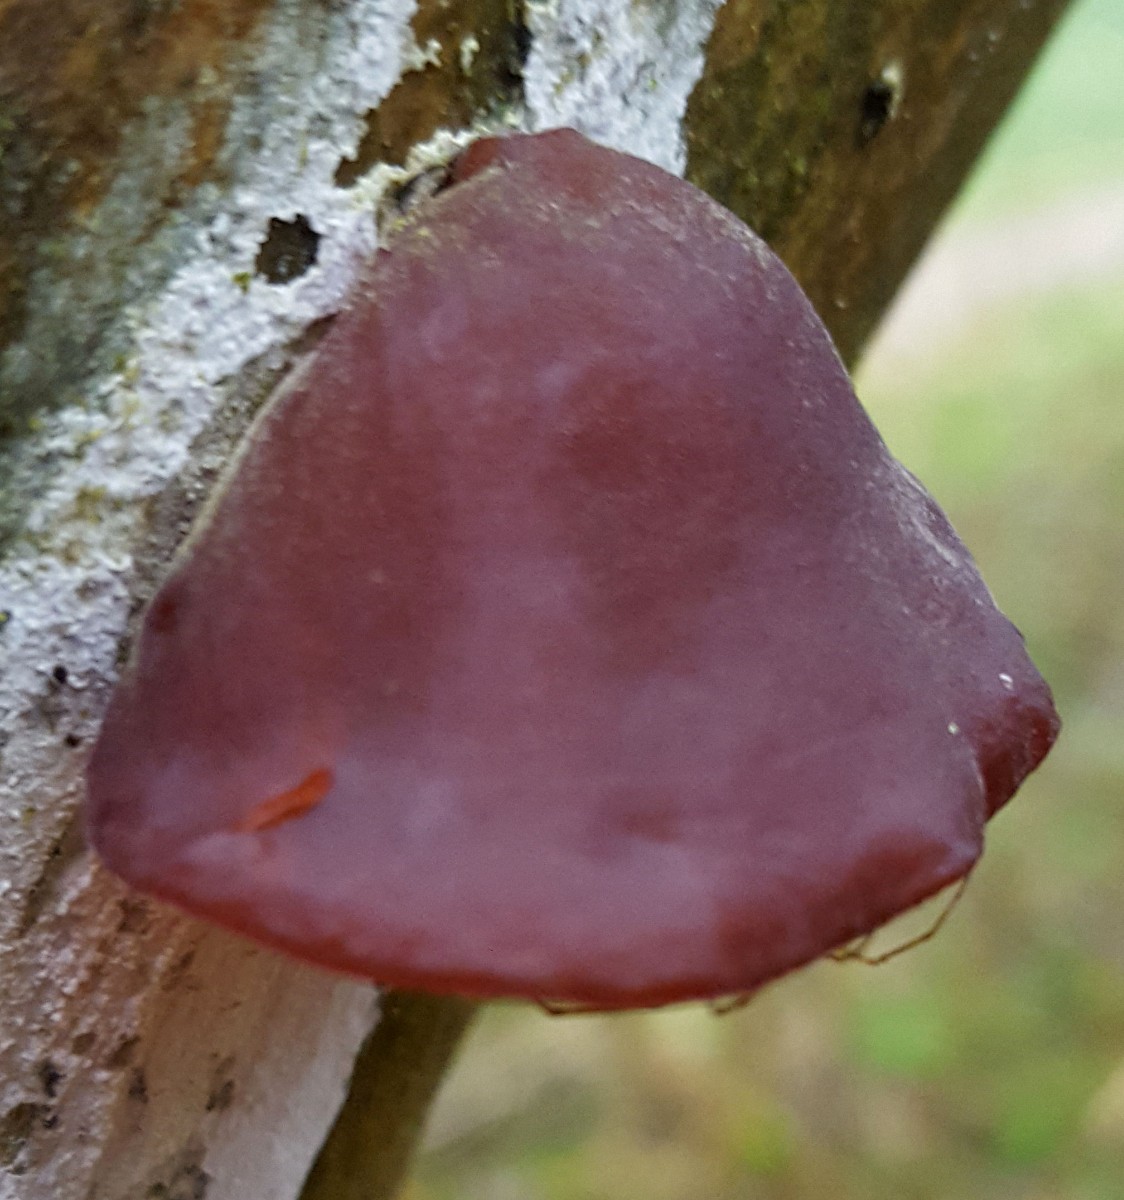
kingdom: Fungi
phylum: Basidiomycota
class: Agaricomycetes
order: Auriculariales
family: Auriculariaceae
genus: Auricularia
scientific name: Auricularia auricula-judae
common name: almindelig judasøre
